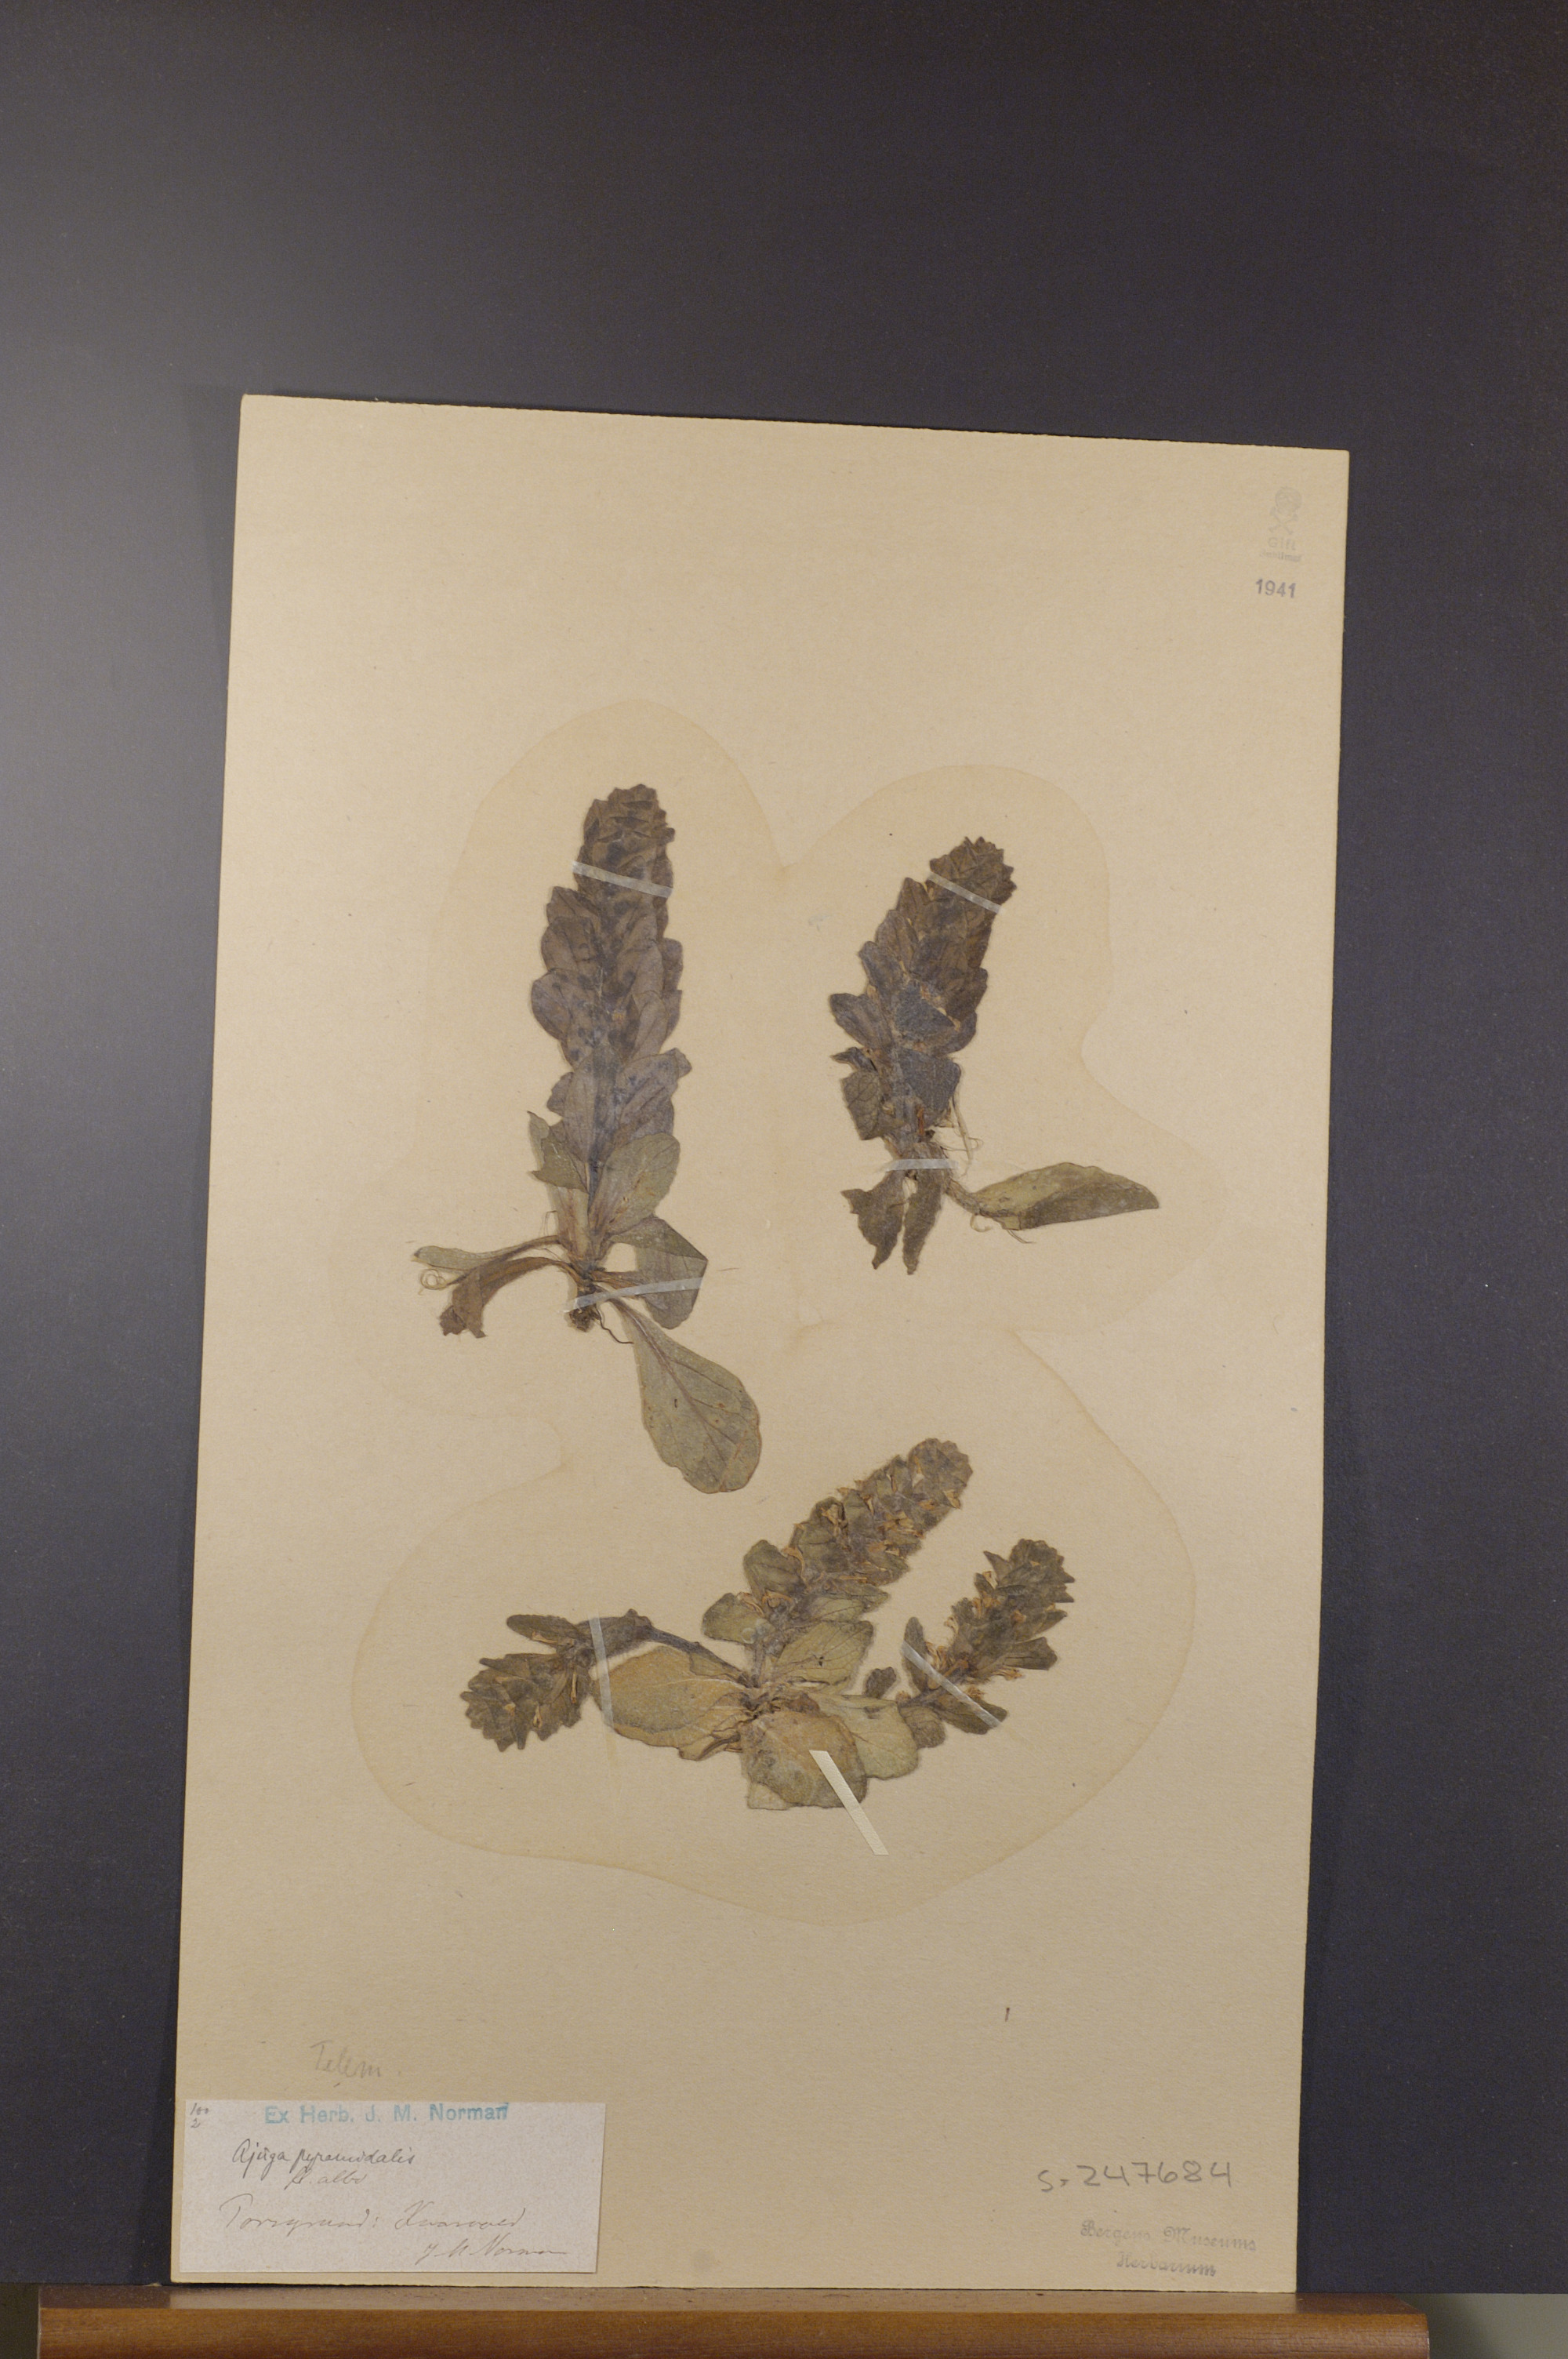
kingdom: Plantae
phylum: Tracheophyta
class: Magnoliopsida
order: Lamiales
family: Lamiaceae
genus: Ajuga
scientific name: Ajuga pyramidalis
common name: Pyramid bugle
